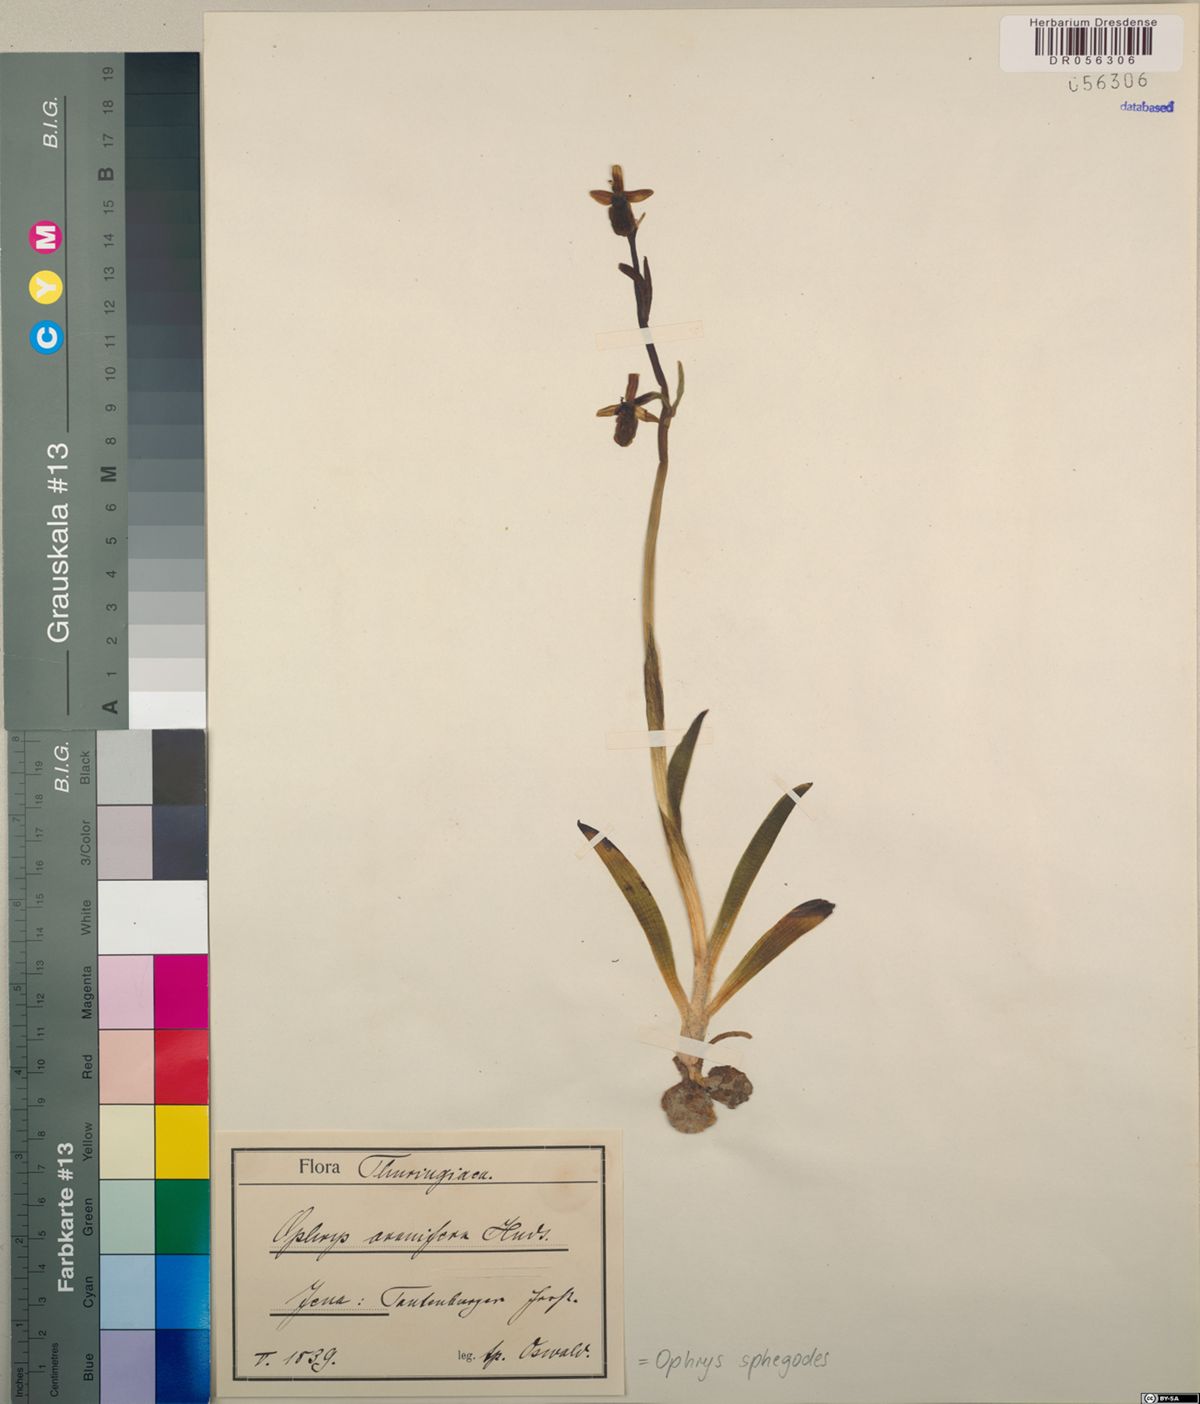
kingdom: Plantae
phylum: Tracheophyta
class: Liliopsida
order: Asparagales
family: Orchidaceae
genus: Ophrys
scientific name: Ophrys sphegodes
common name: Early spider-orchid
